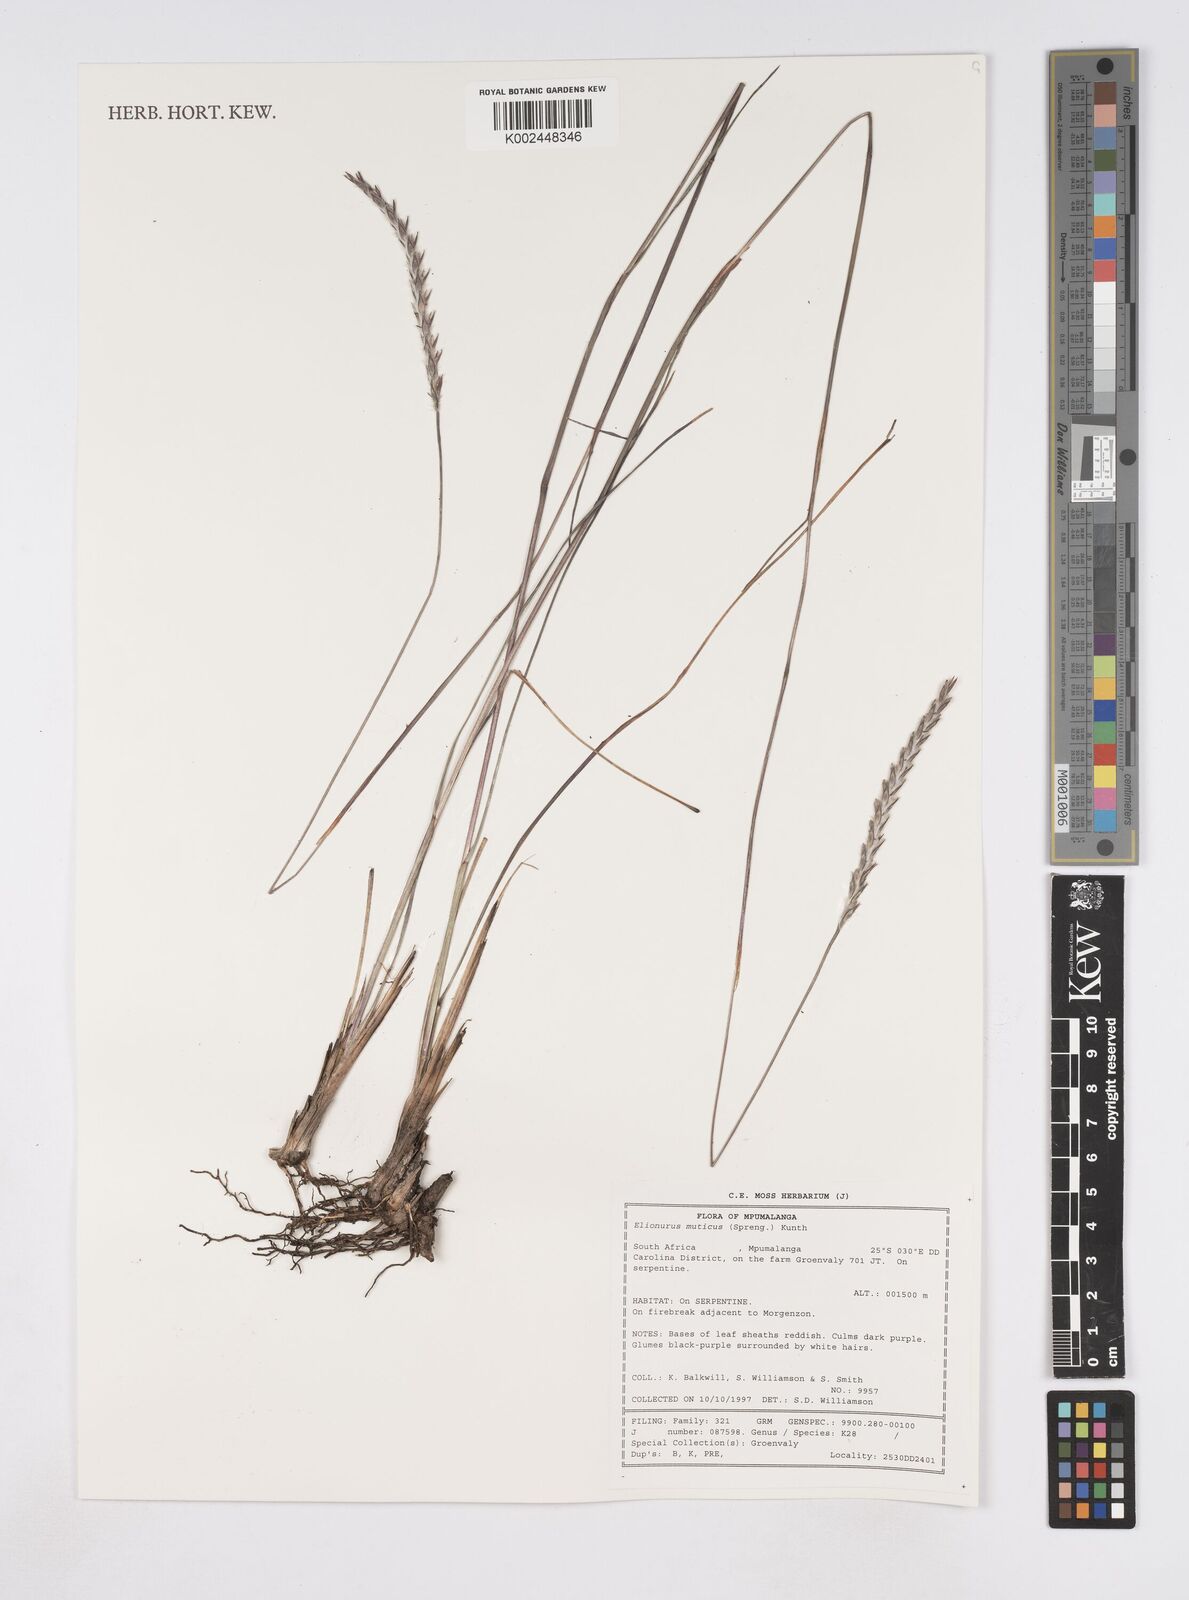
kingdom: Plantae
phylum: Tracheophyta
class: Liliopsida
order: Poales
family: Poaceae
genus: Elionurus
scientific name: Elionurus muticus
